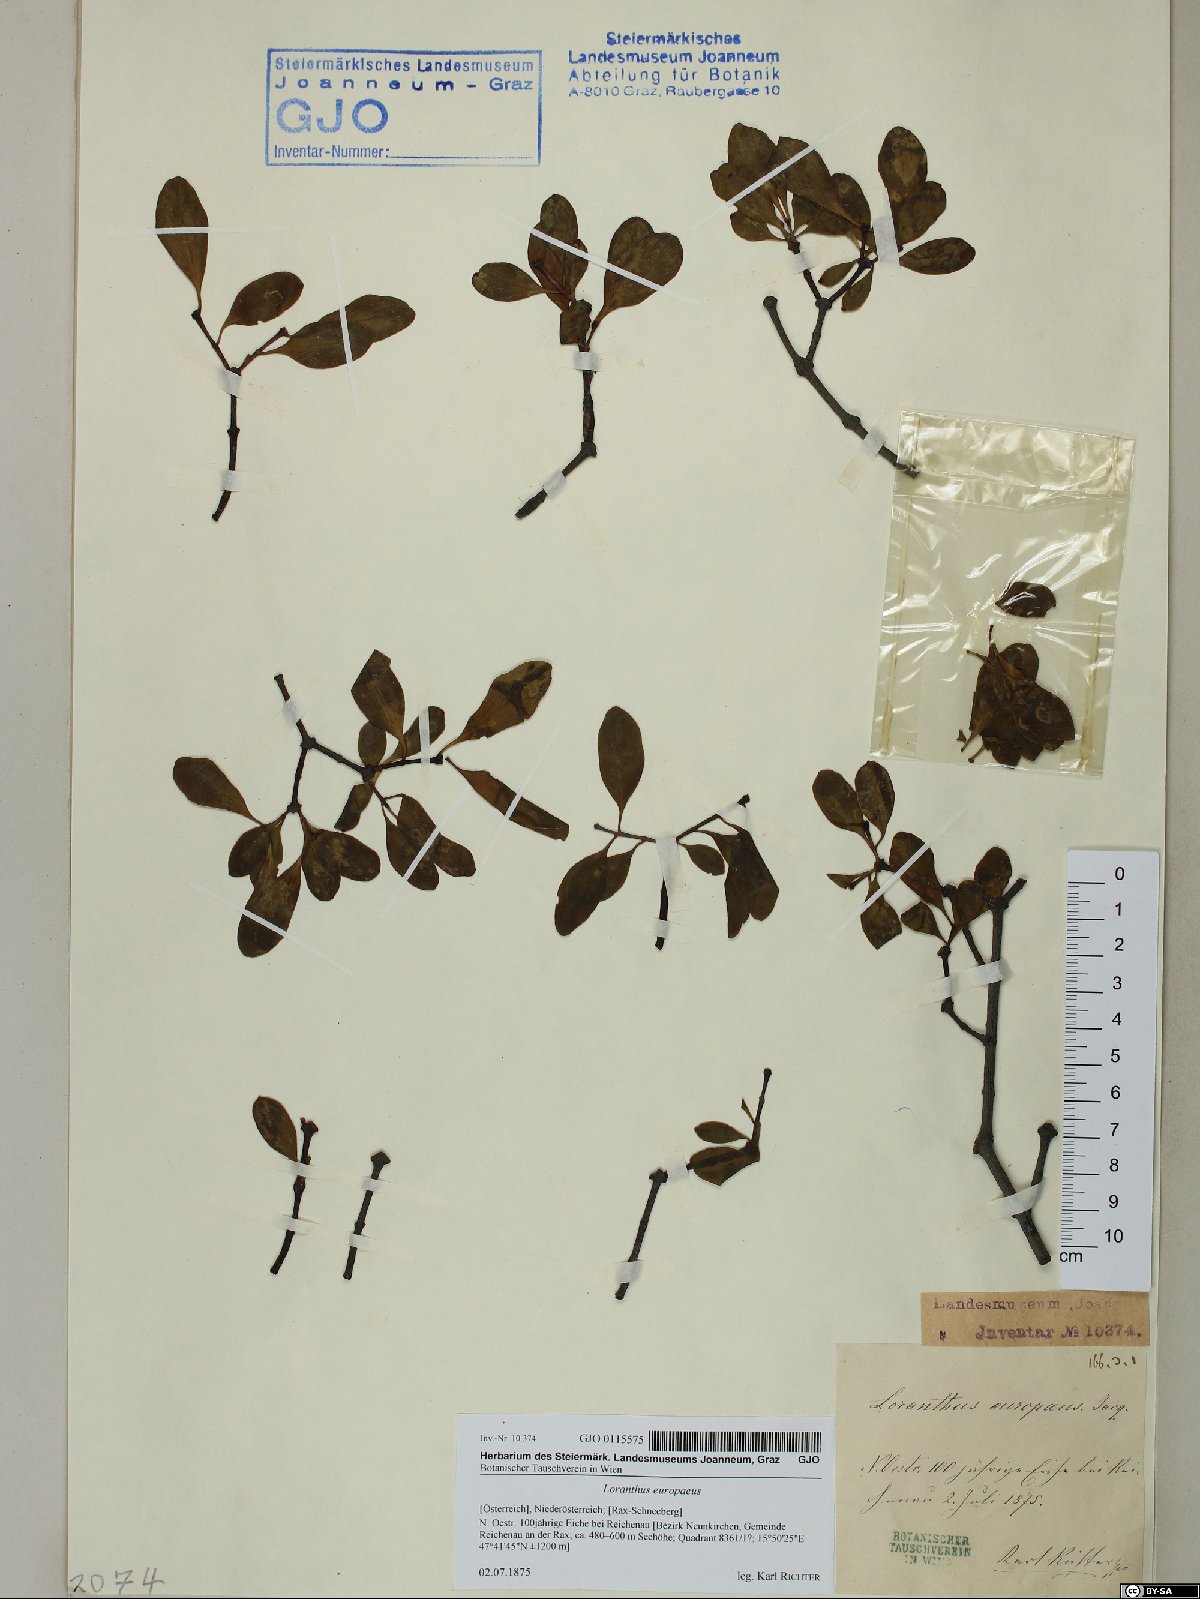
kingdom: Plantae
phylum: Tracheophyta
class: Magnoliopsida
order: Santalales
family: Loranthaceae
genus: Loranthus
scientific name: Loranthus europaeus
